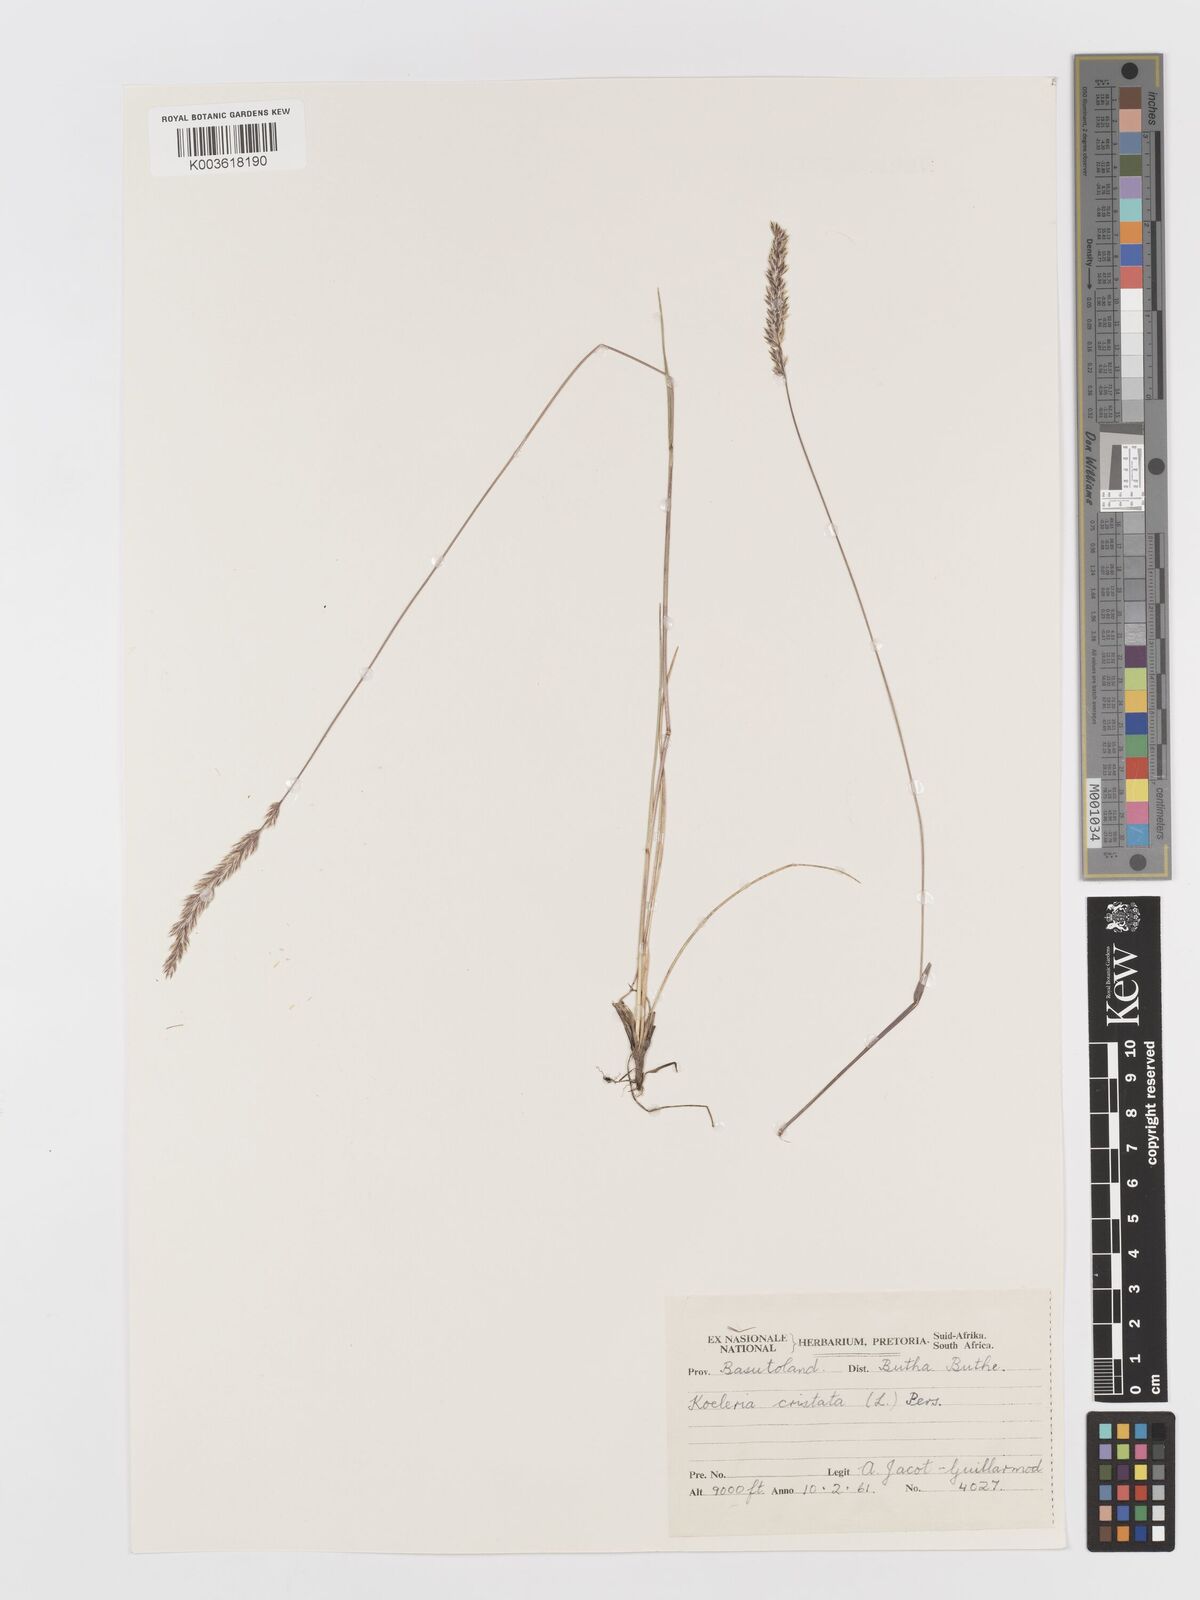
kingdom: Plantae
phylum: Tracheophyta
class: Liliopsida
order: Poales
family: Poaceae
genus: Koeleria
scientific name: Koeleria capensis
